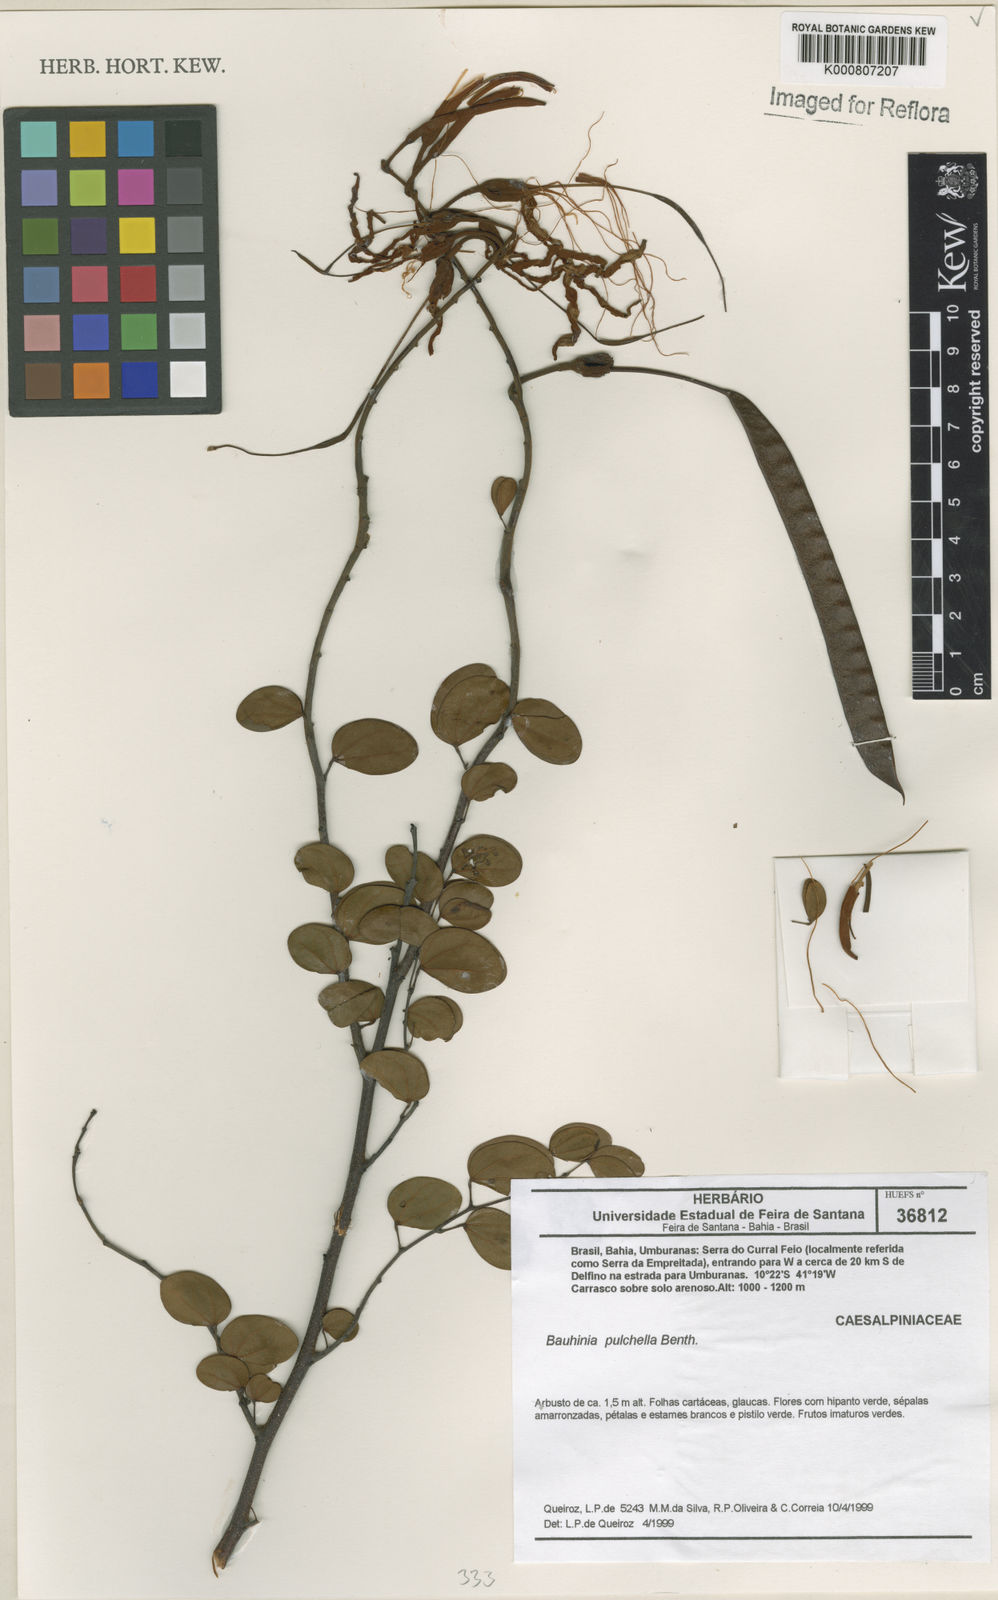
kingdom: Plantae
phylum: Tracheophyta
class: Magnoliopsida
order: Fabales
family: Fabaceae
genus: Bauhinia
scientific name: Bauhinia pulchella
